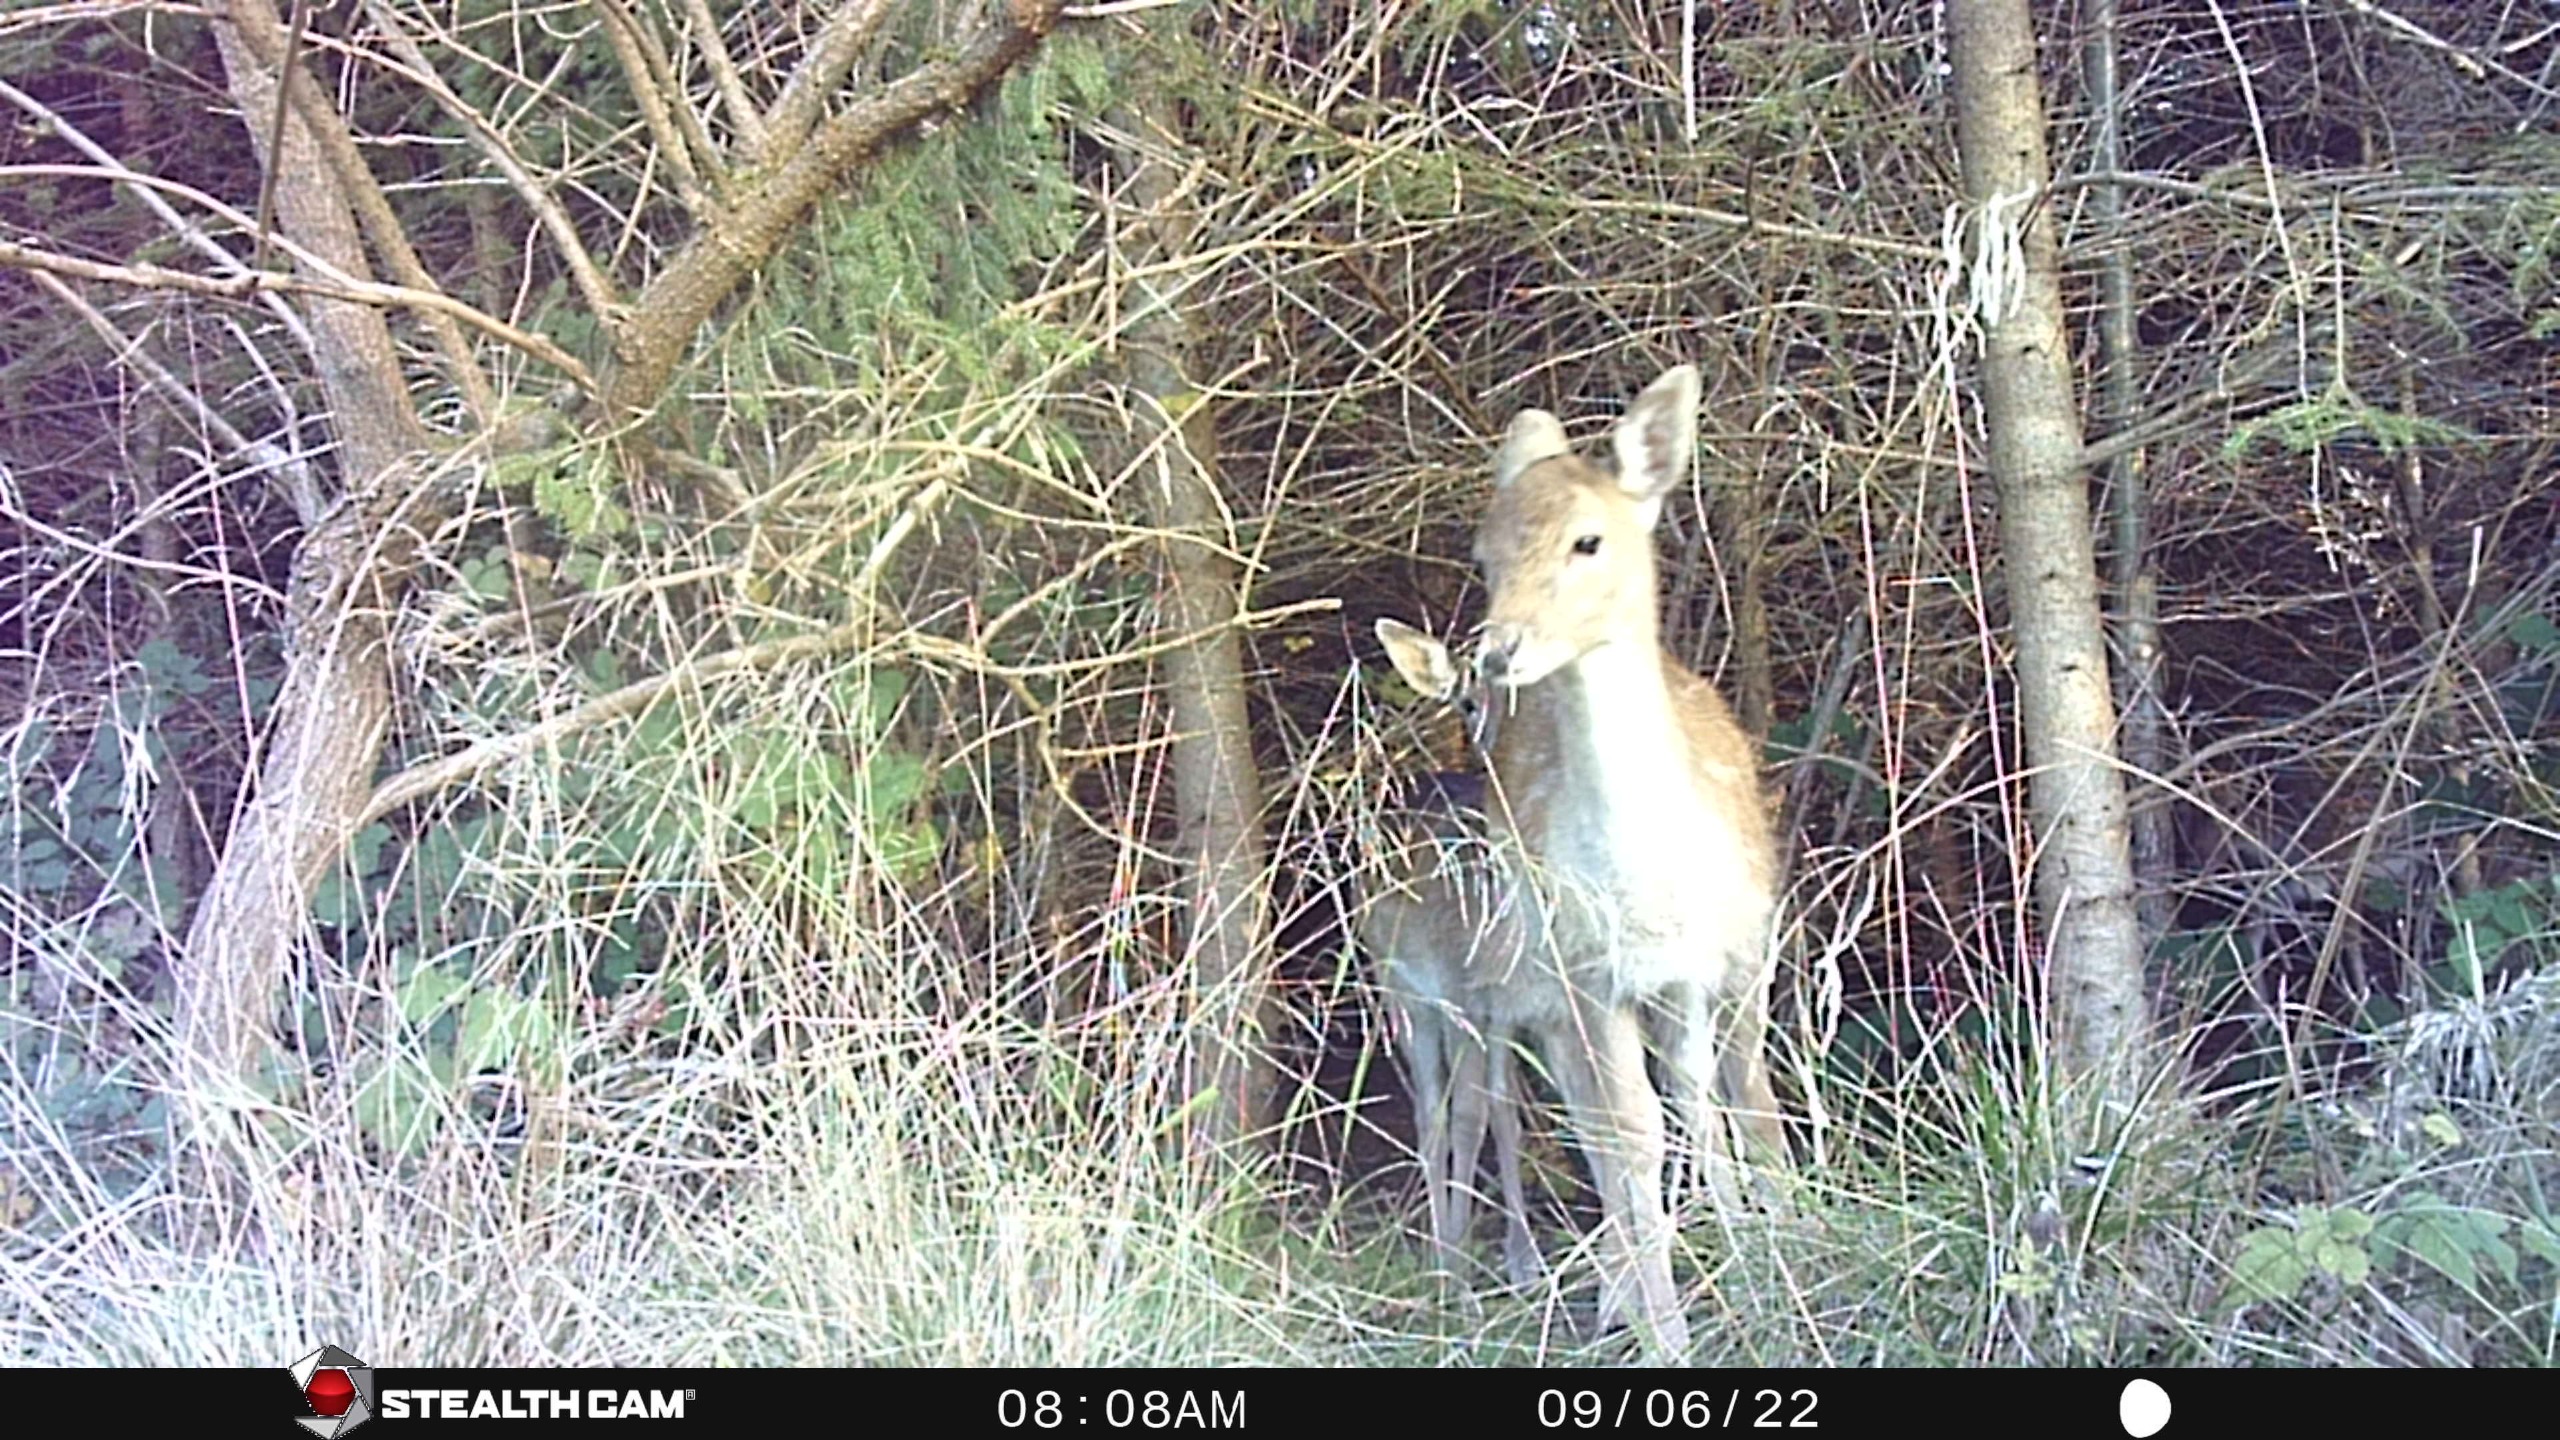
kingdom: Animalia
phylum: Chordata
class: Mammalia
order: Artiodactyla
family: Cervidae
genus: Dama
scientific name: Dama dama
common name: Dådyr
